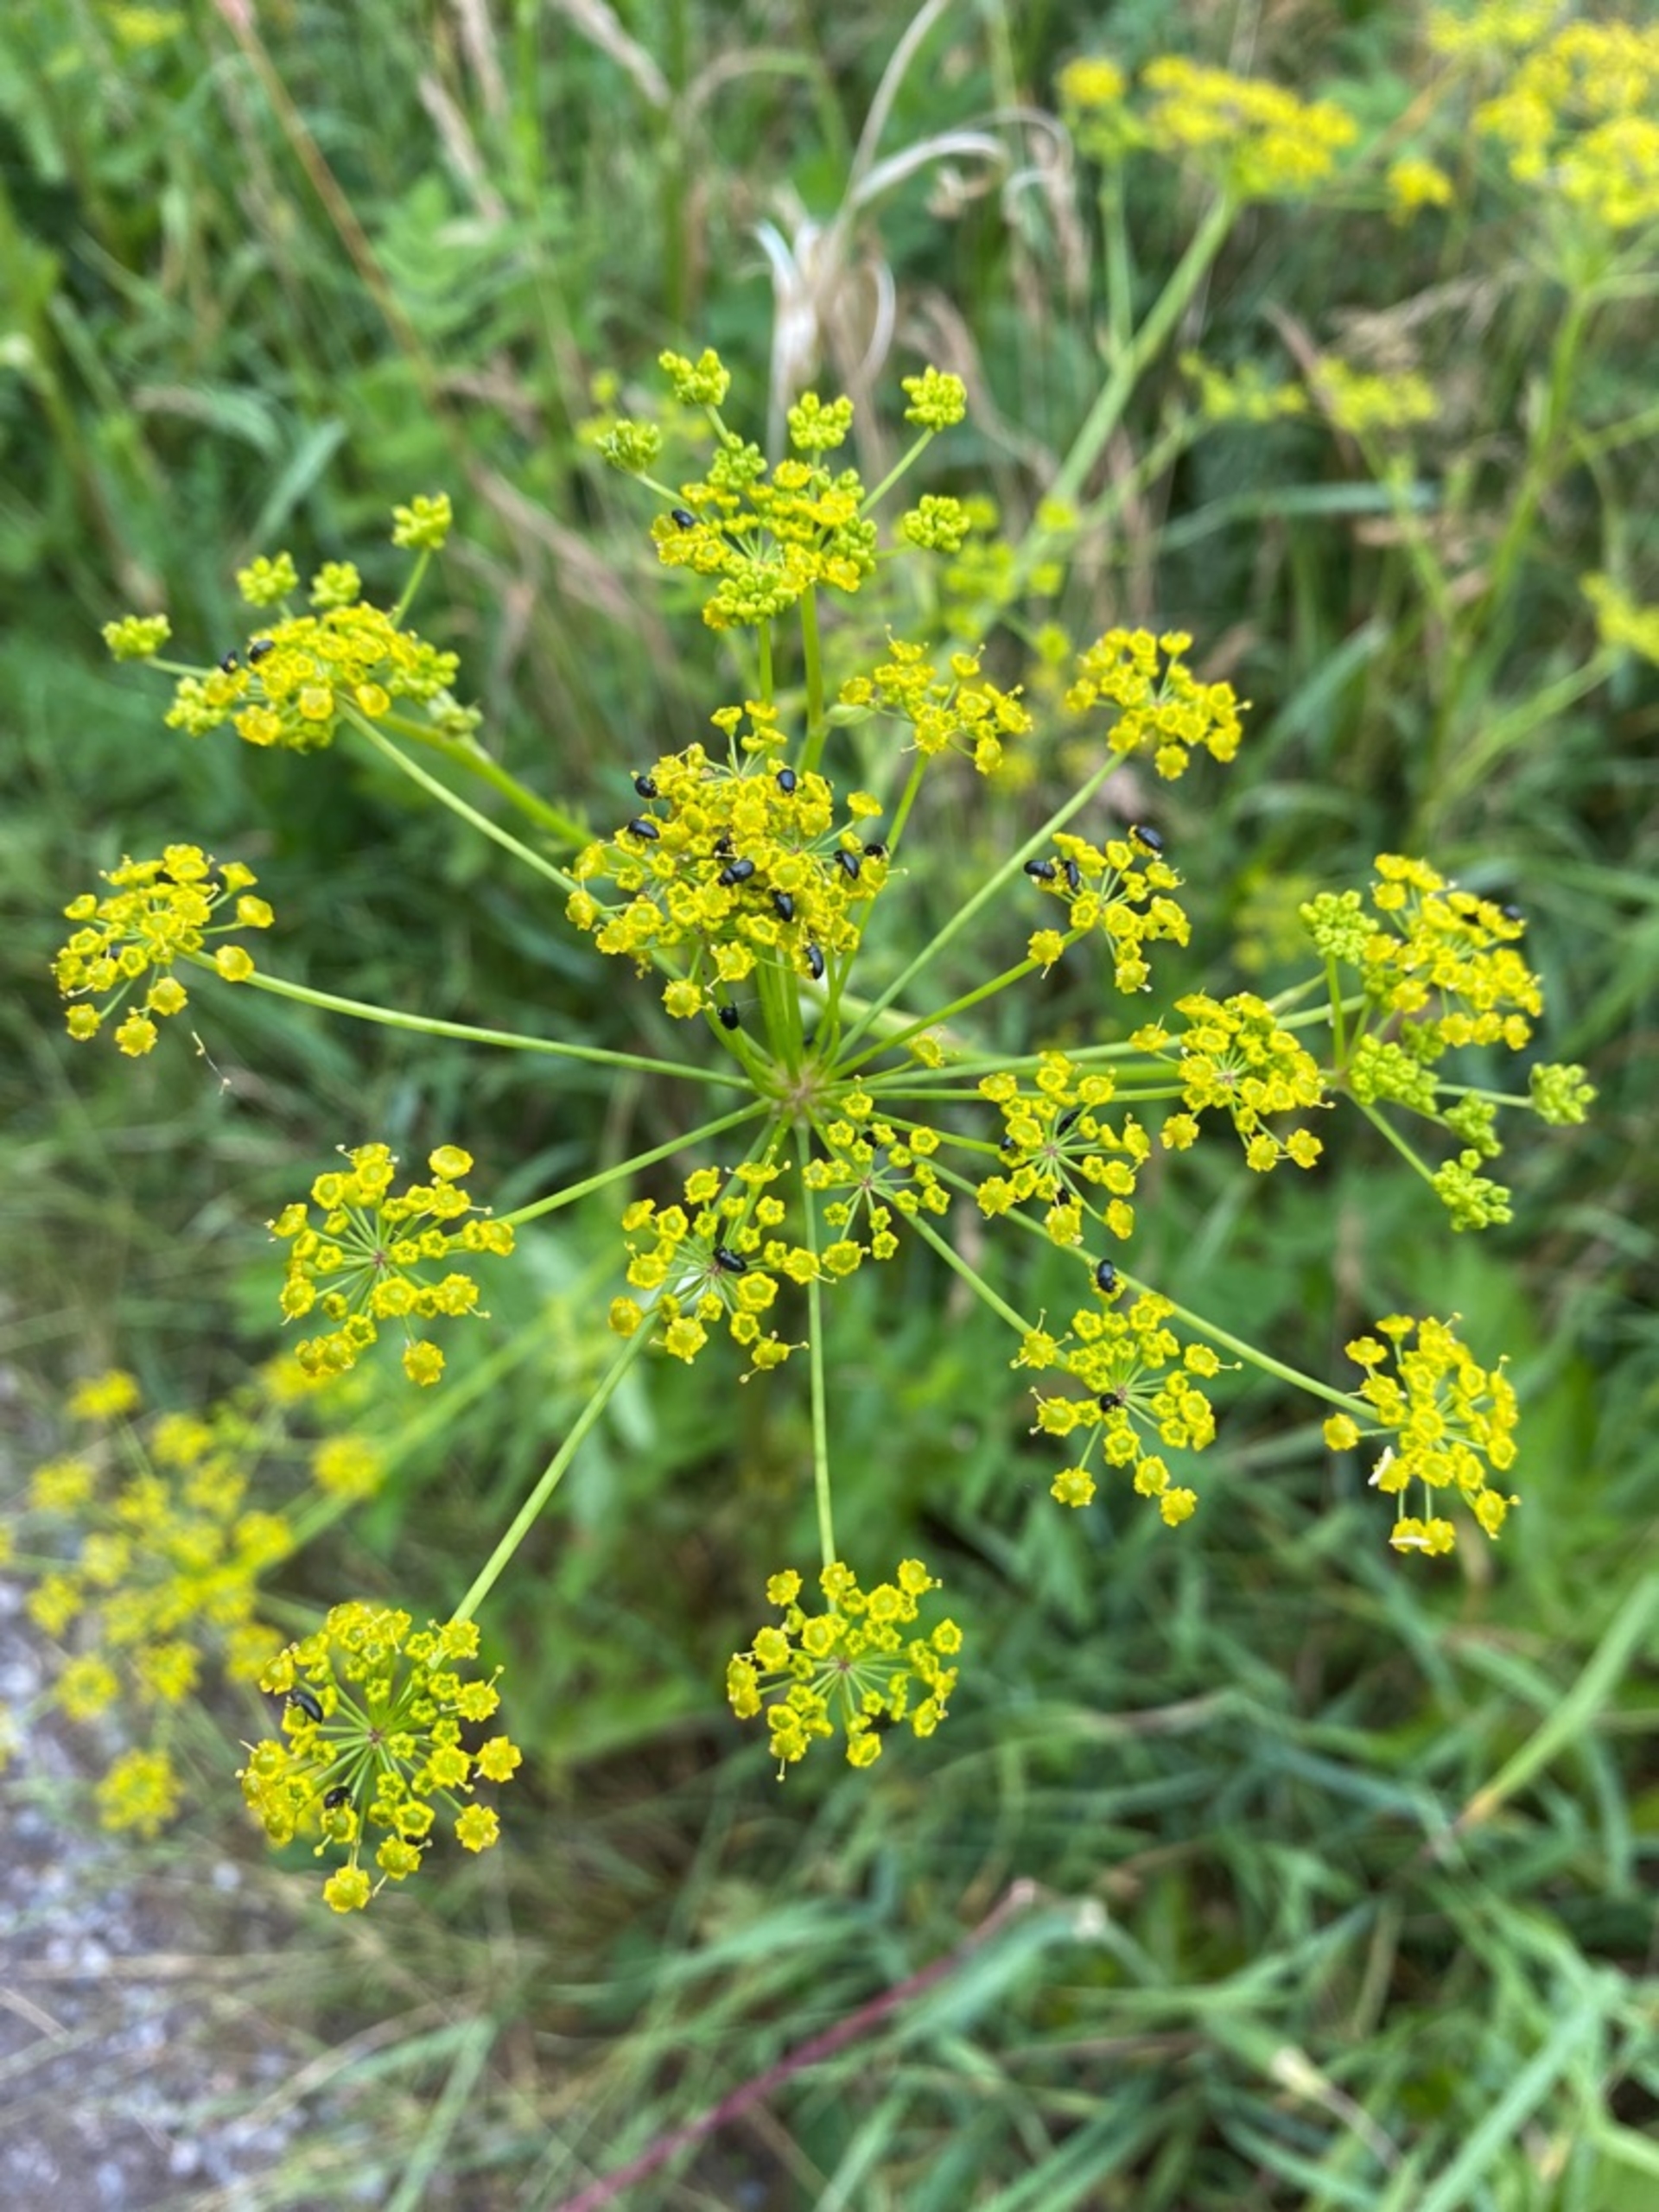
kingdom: Plantae
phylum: Tracheophyta
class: Magnoliopsida
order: Apiales
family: Apiaceae
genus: Pastinaca
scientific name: Pastinaca sativa
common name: Pastinak
